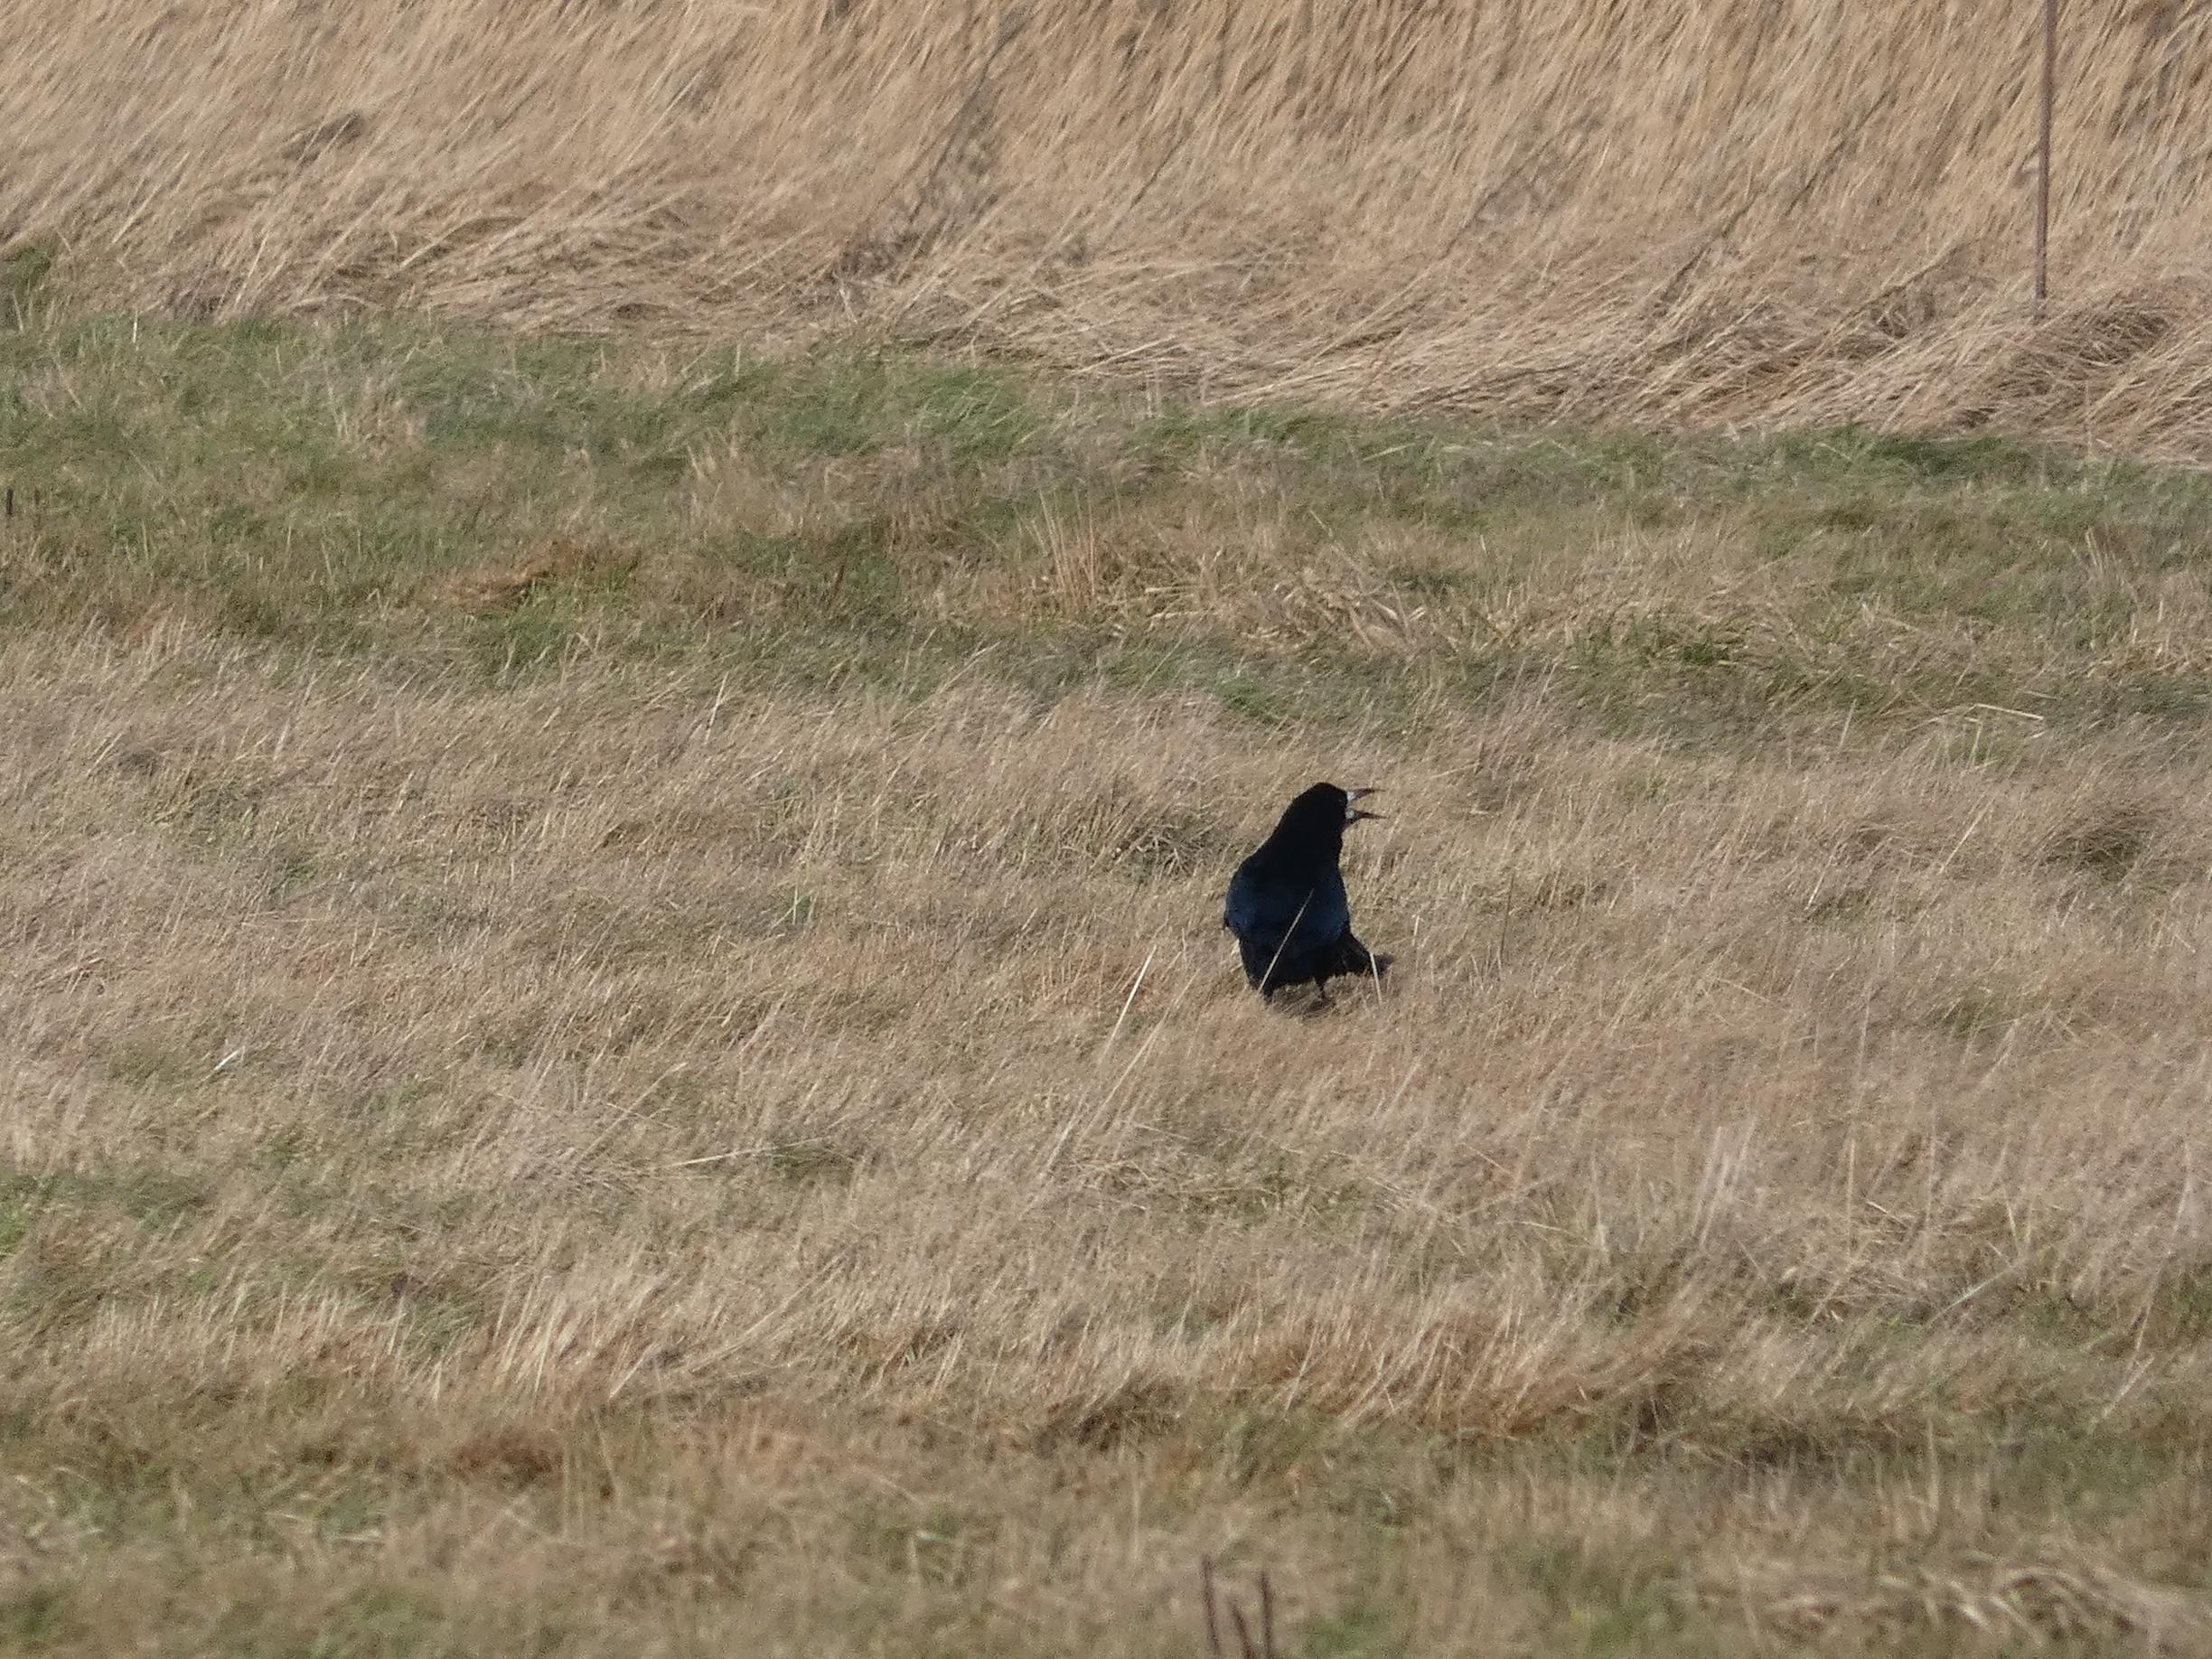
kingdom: Animalia
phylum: Chordata
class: Aves
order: Passeriformes
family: Corvidae
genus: Corvus
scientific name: Corvus frugilegus
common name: Råge
